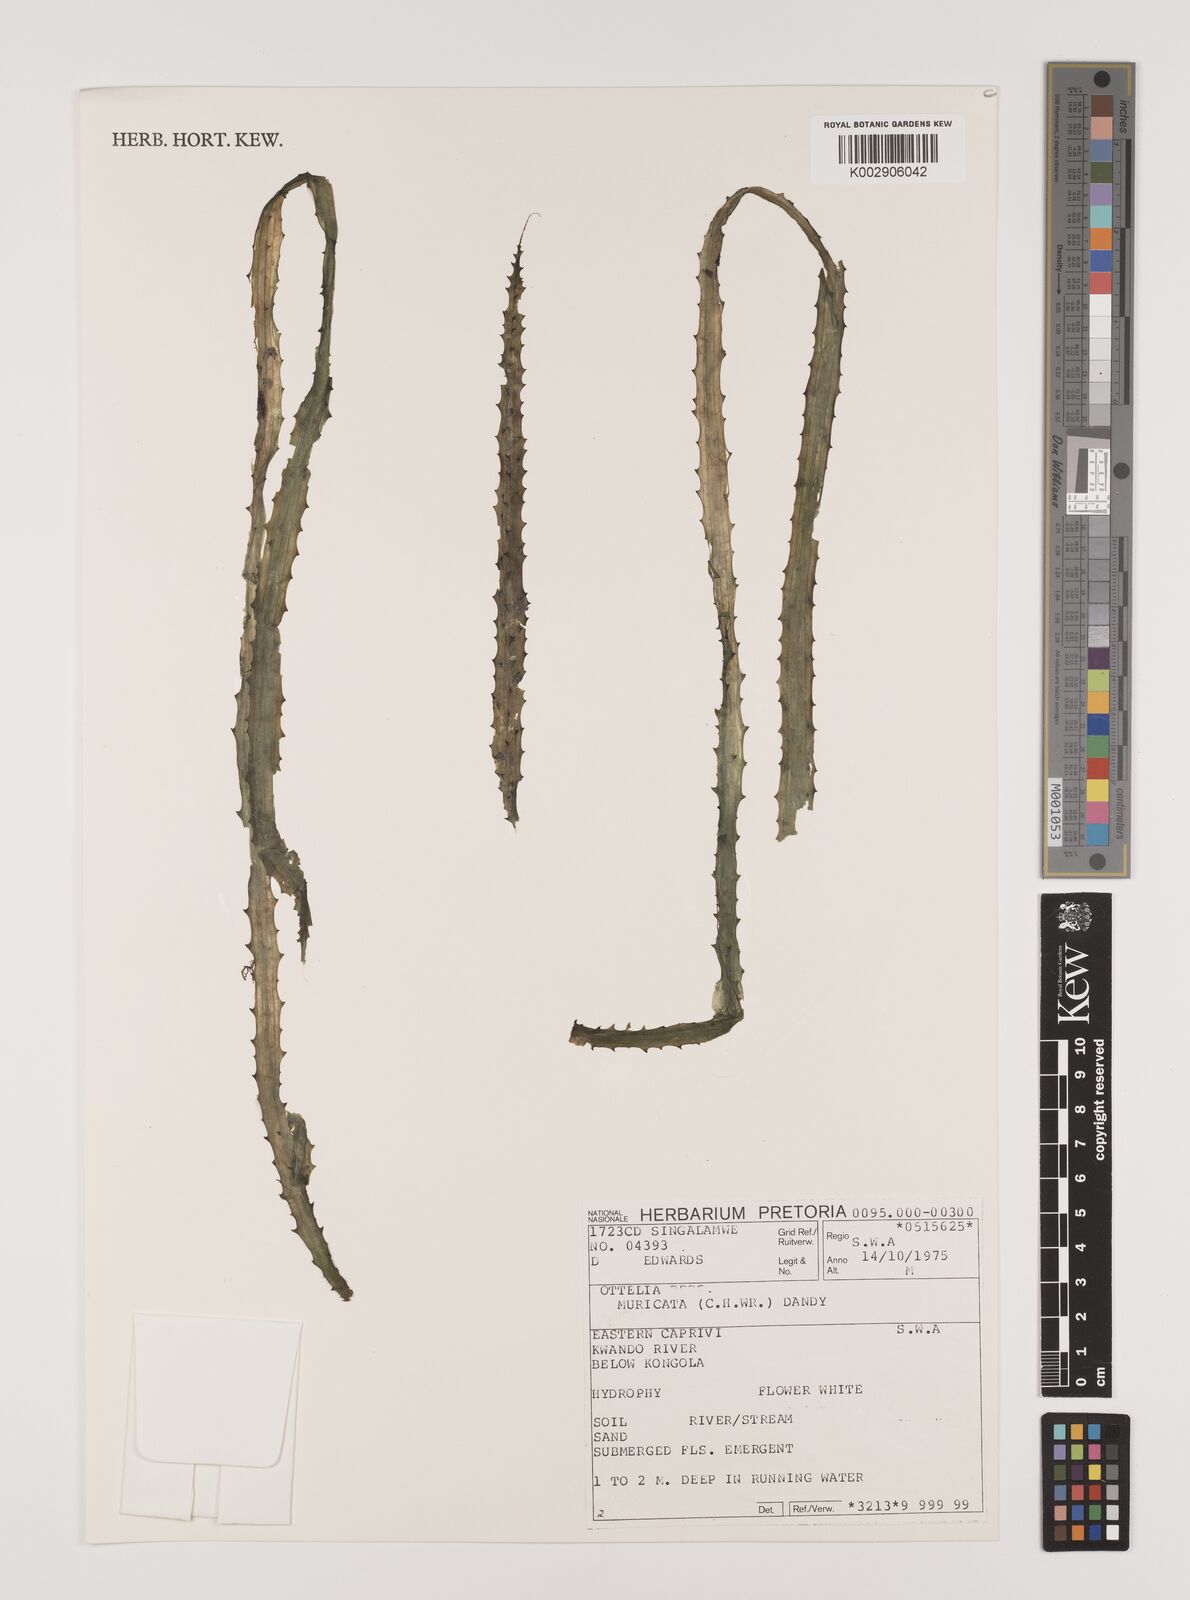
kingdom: Plantae
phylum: Tracheophyta
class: Liliopsida
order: Alismatales
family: Hydrocharitaceae
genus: Ottelia
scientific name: Ottelia muricata
